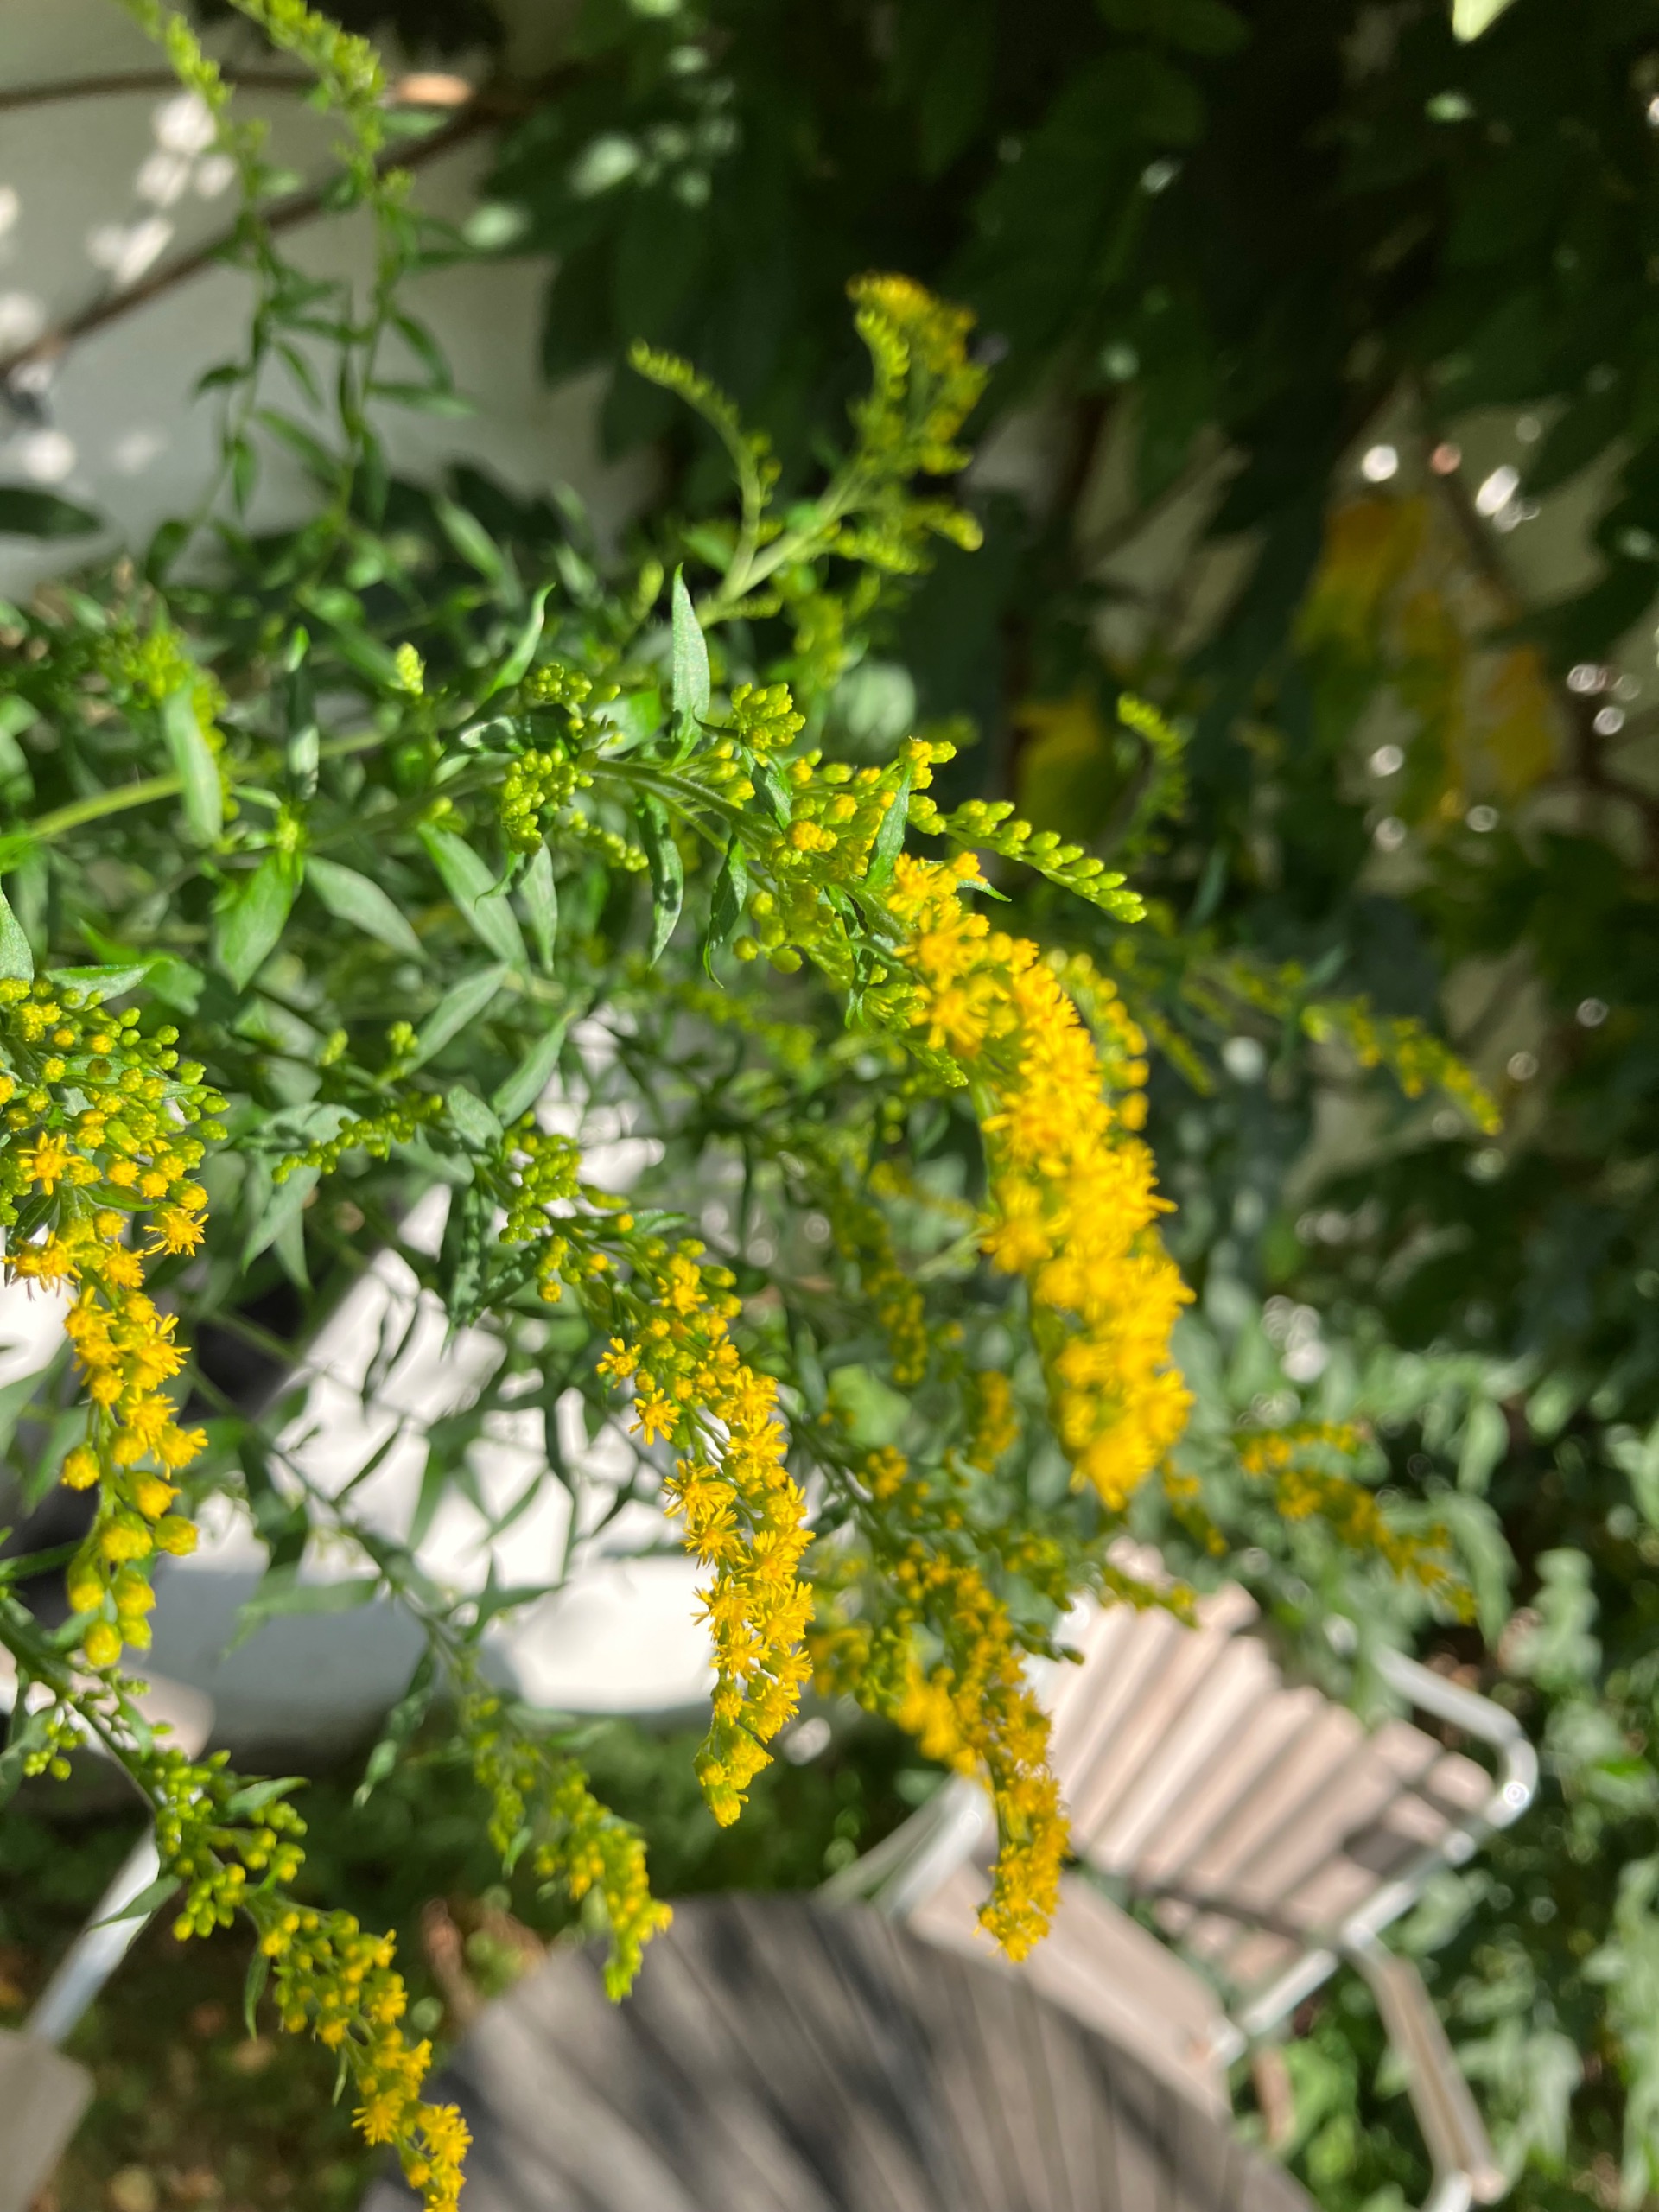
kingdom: Plantae
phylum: Tracheophyta
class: Magnoliopsida
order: Asterales
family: Asteraceae
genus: Solidago
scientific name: Solidago canadensis
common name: Kanadisk gyldenris
